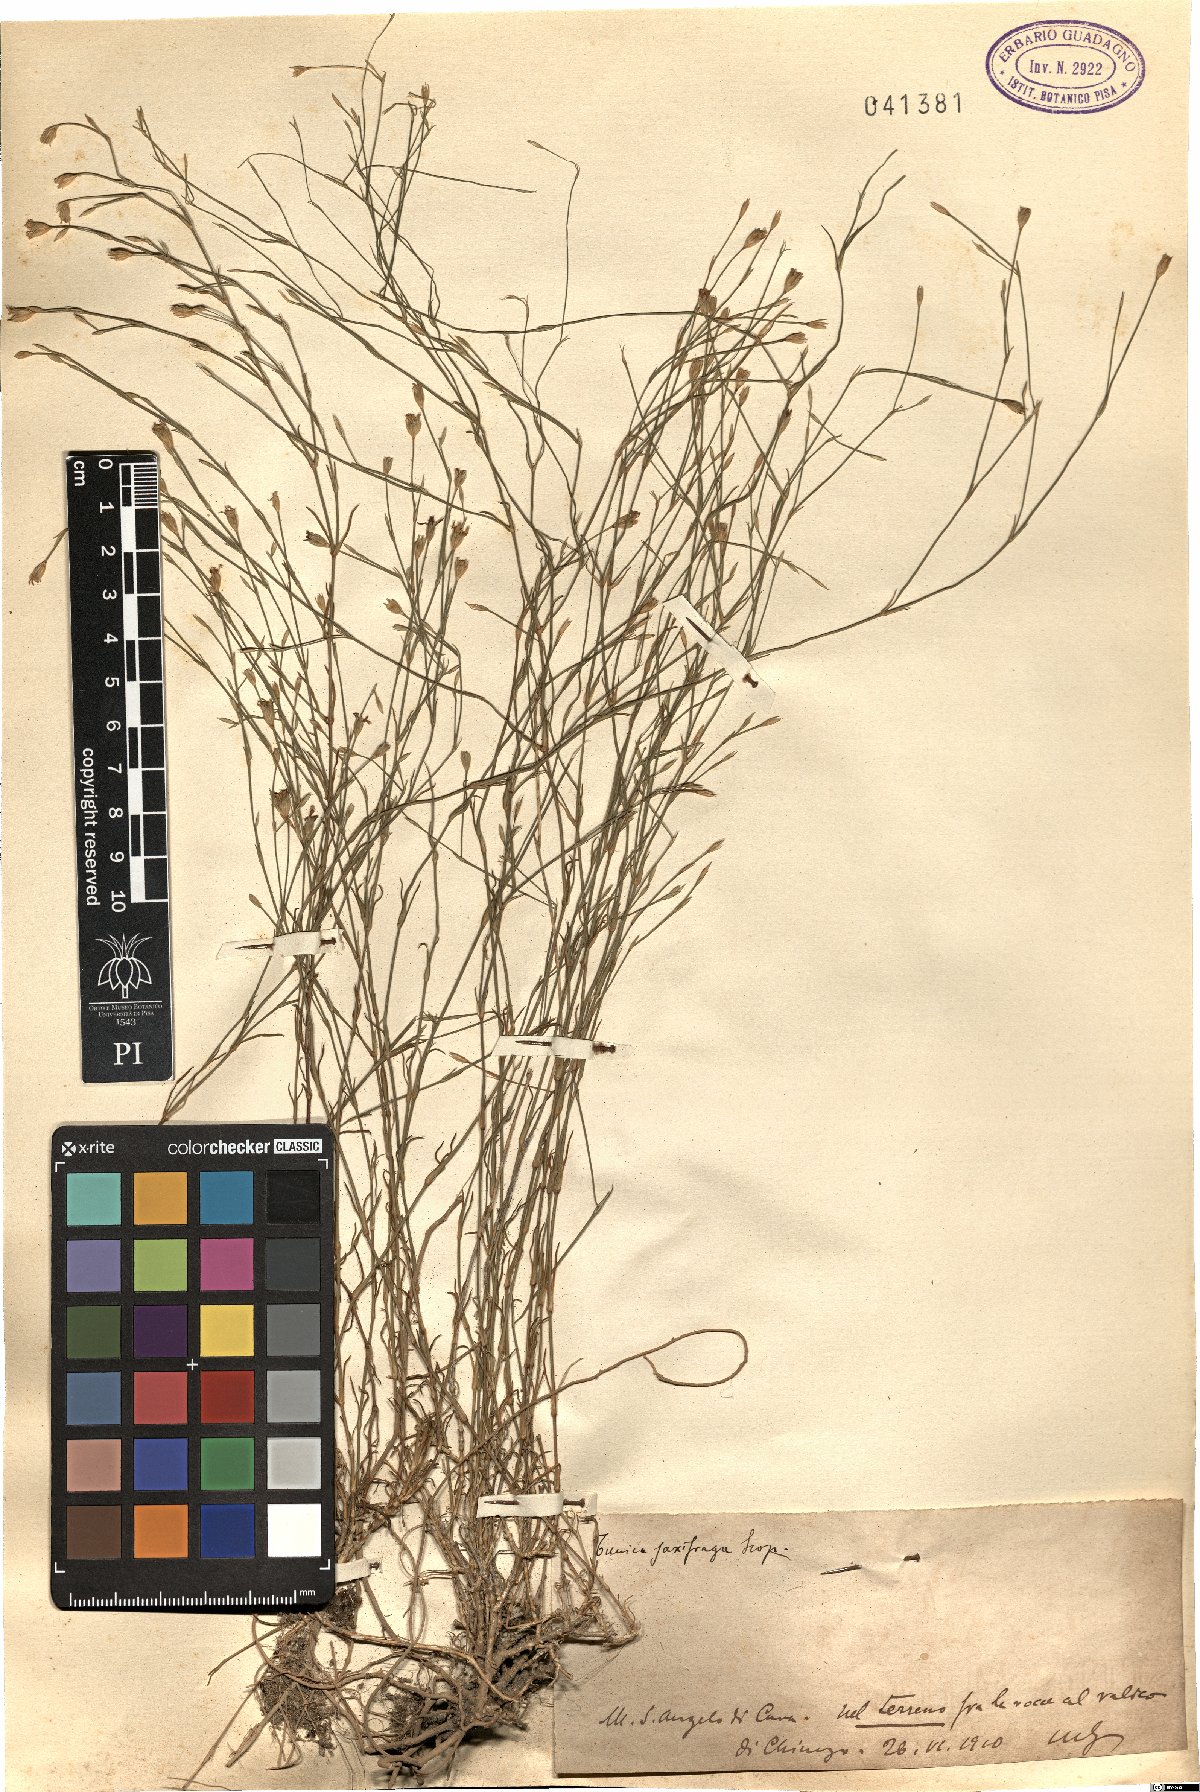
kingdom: Plantae
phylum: Tracheophyta
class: Magnoliopsida
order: Caryophyllales
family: Caryophyllaceae
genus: Petrorhagia
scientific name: Petrorhagia saxifraga
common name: Tunicflower
